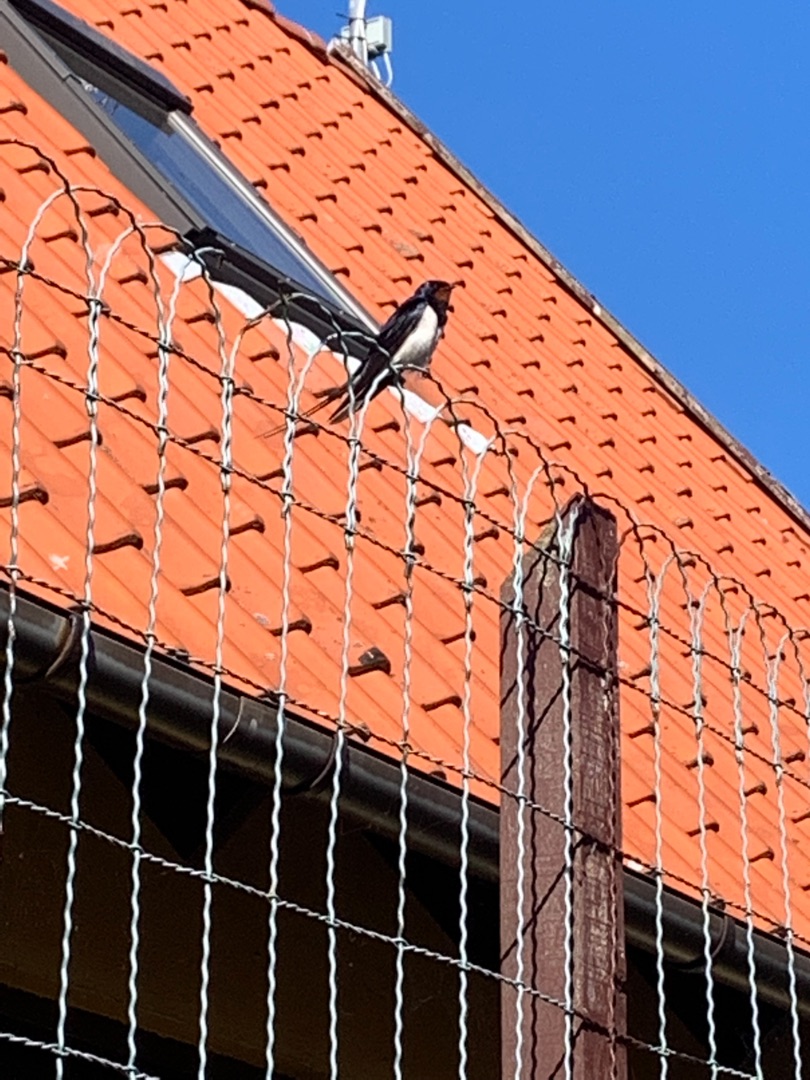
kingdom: Animalia
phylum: Chordata
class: Aves
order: Passeriformes
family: Hirundinidae
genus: Hirundo
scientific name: Hirundo rustica
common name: Landsvale
